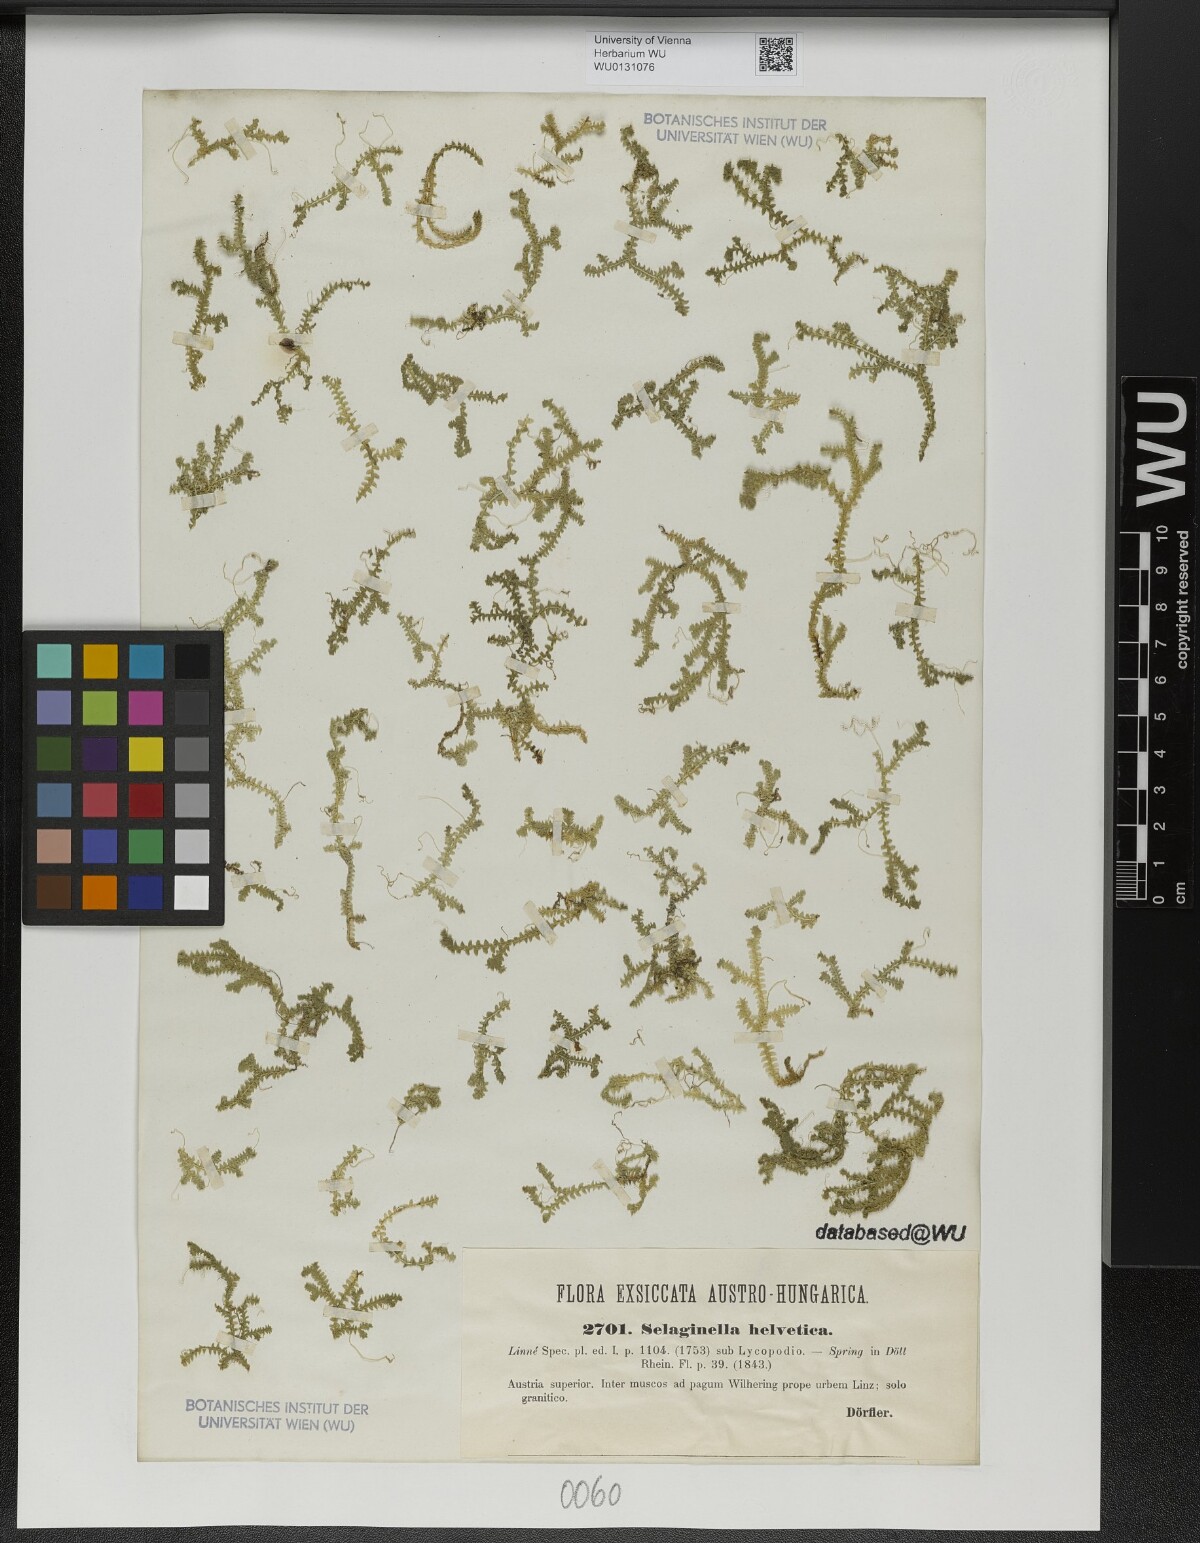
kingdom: Plantae
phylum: Tracheophyta
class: Lycopodiopsida
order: Selaginellales
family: Selaginellaceae
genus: Selaginella
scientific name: Selaginella helvetica
